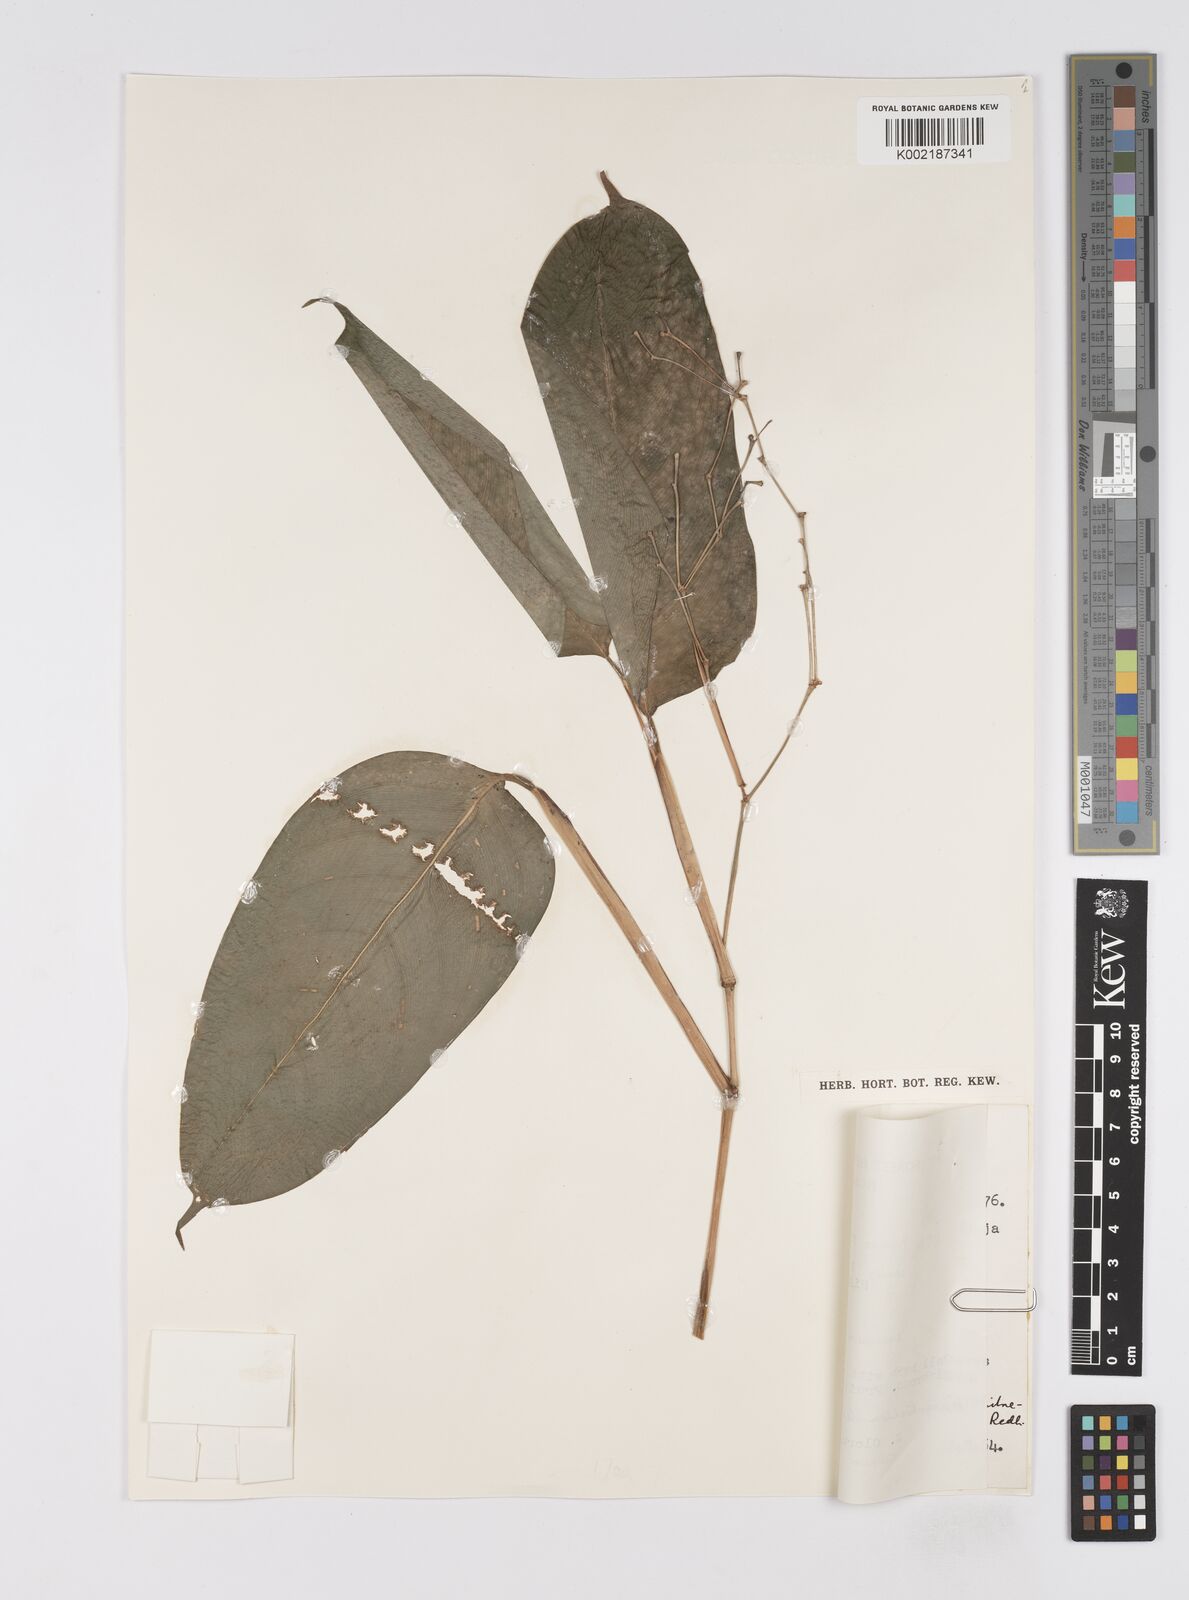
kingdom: Plantae
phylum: Tracheophyta
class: Liliopsida
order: Zingiberales
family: Marantaceae
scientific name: Marantaceae
